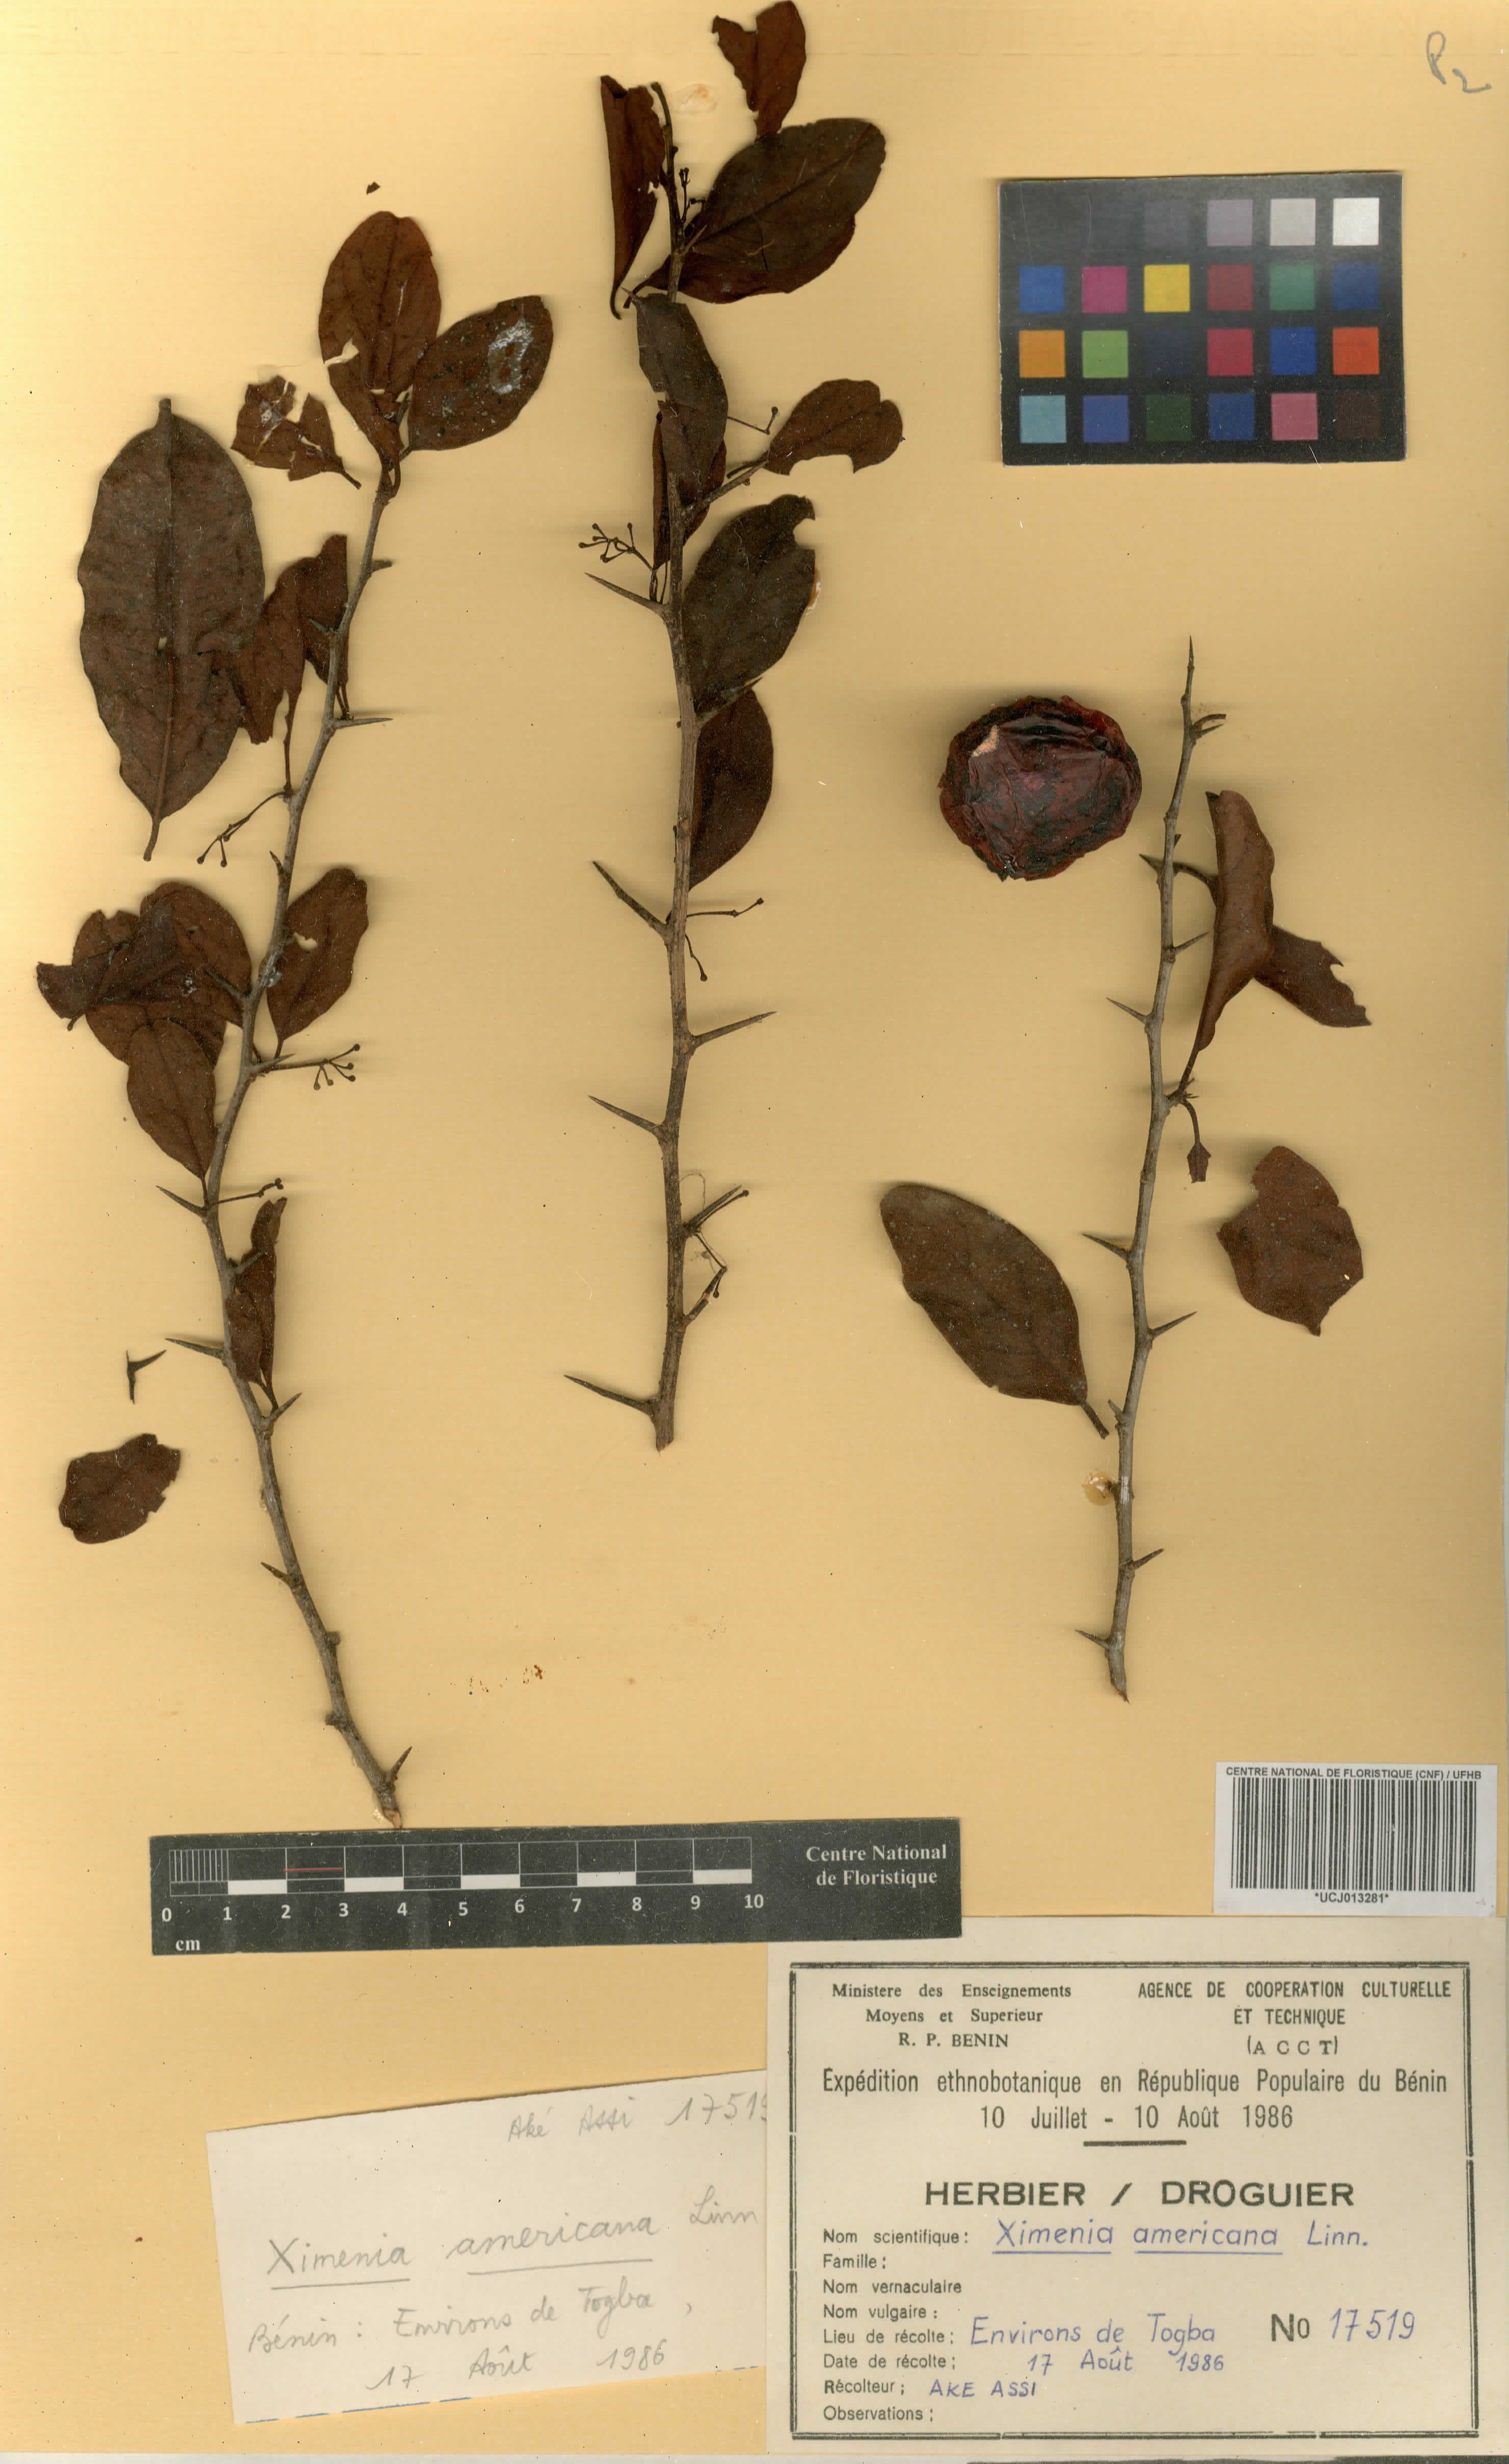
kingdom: Plantae
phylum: Tracheophyta
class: Magnoliopsida
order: Santalales
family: Ximeniaceae
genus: Ximenia
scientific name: Ximenia americana
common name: Tallowwood
